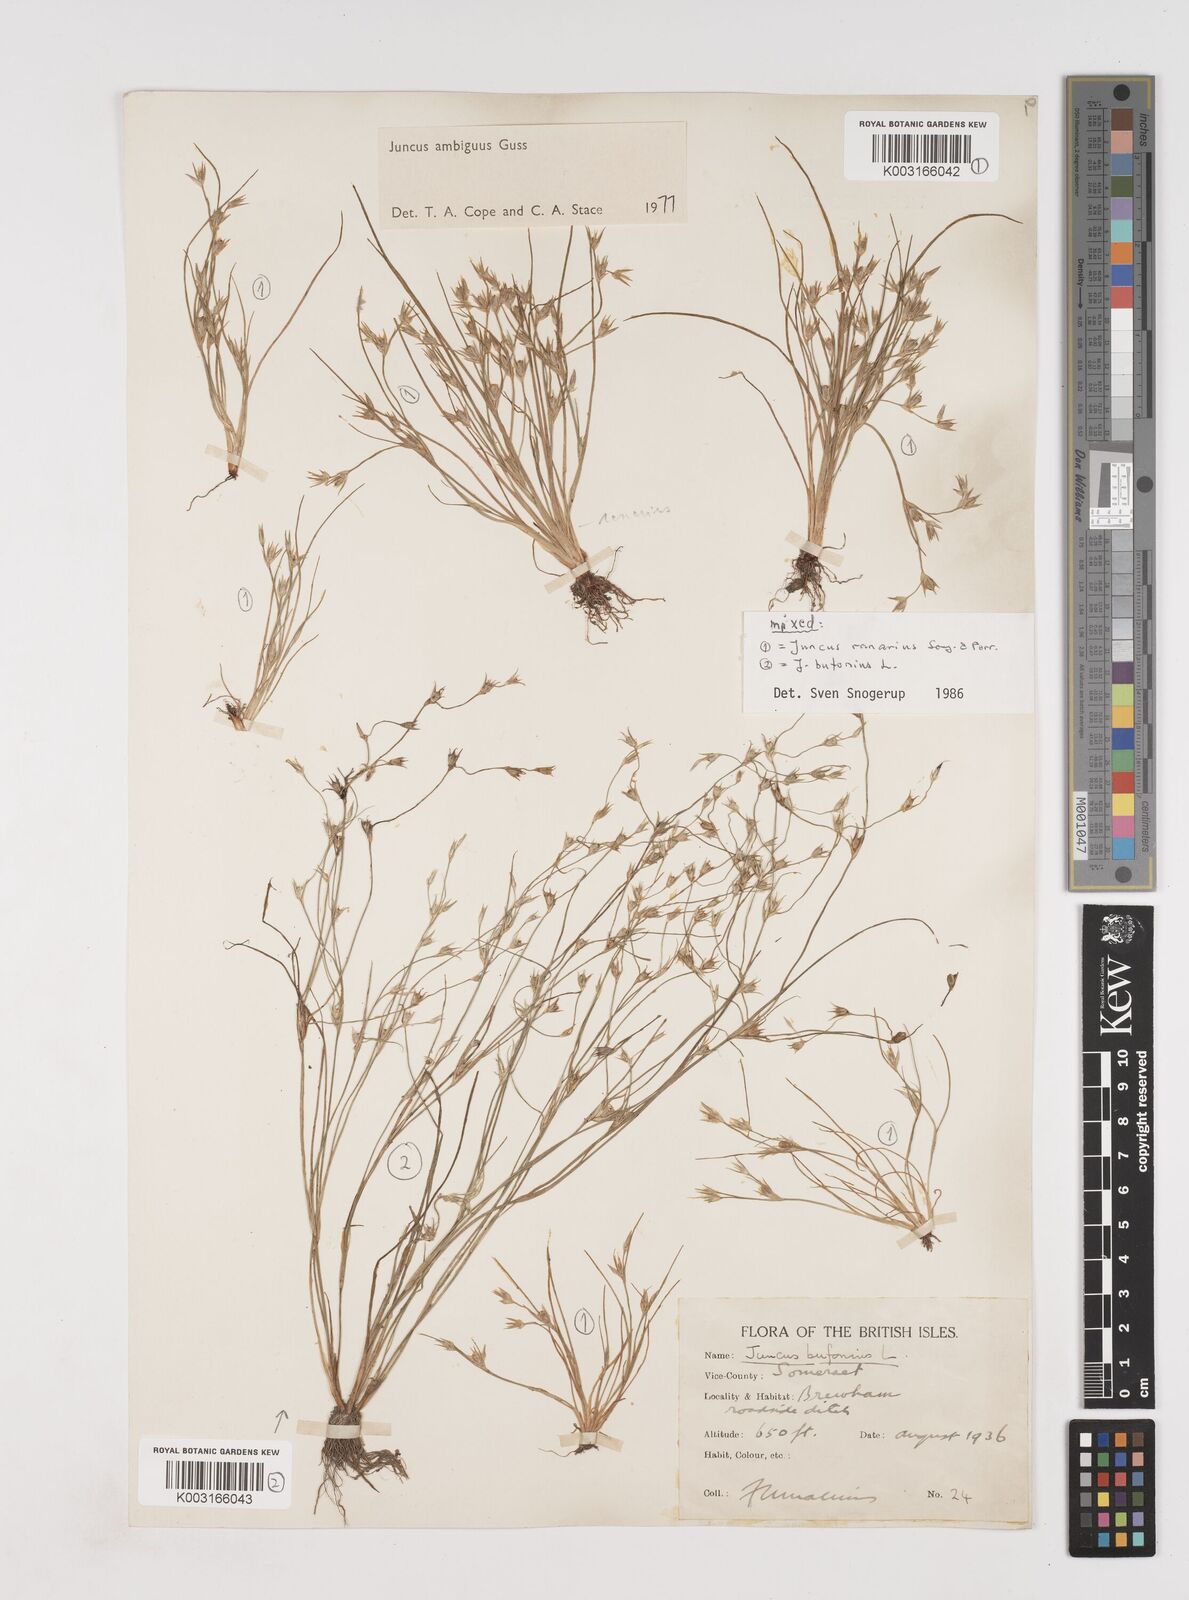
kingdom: Plantae
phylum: Tracheophyta
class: Liliopsida
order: Poales
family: Juncaceae
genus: Juncus
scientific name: Juncus hybridus
